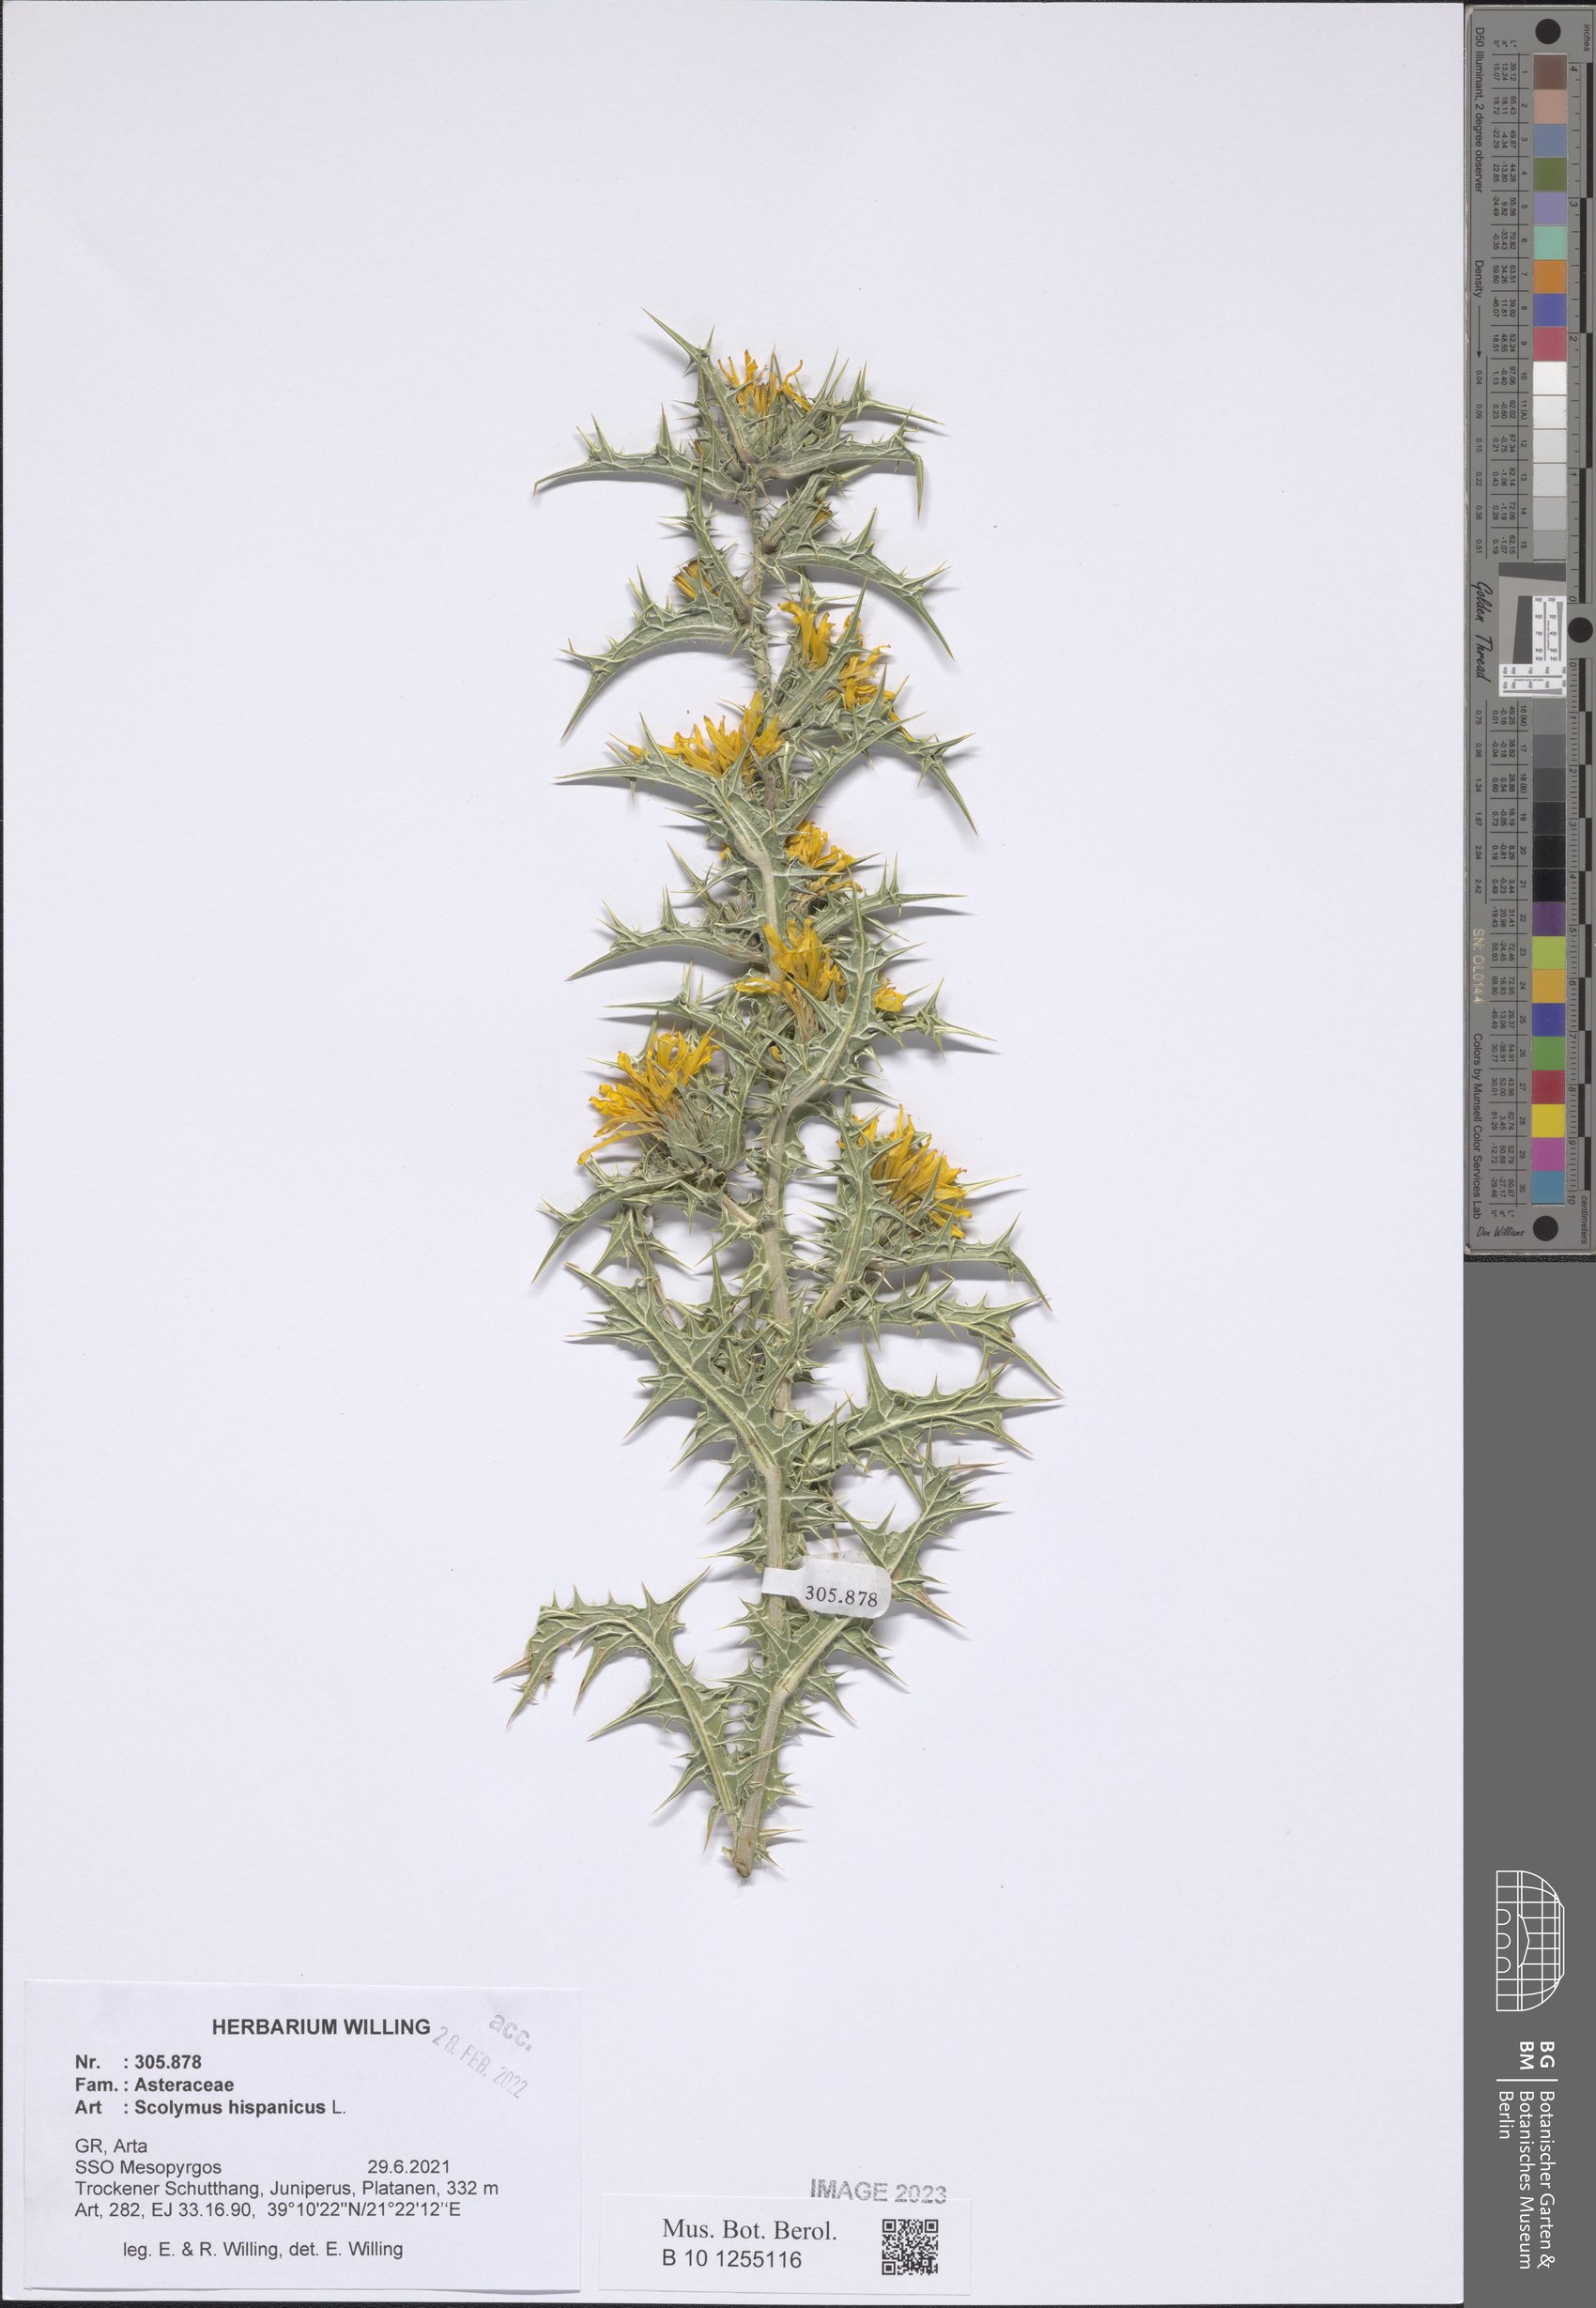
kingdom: Plantae
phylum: Tracheophyta
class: Magnoliopsida
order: Asterales
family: Asteraceae
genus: Scolymus
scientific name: Scolymus hispanicus
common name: Golden thistle
